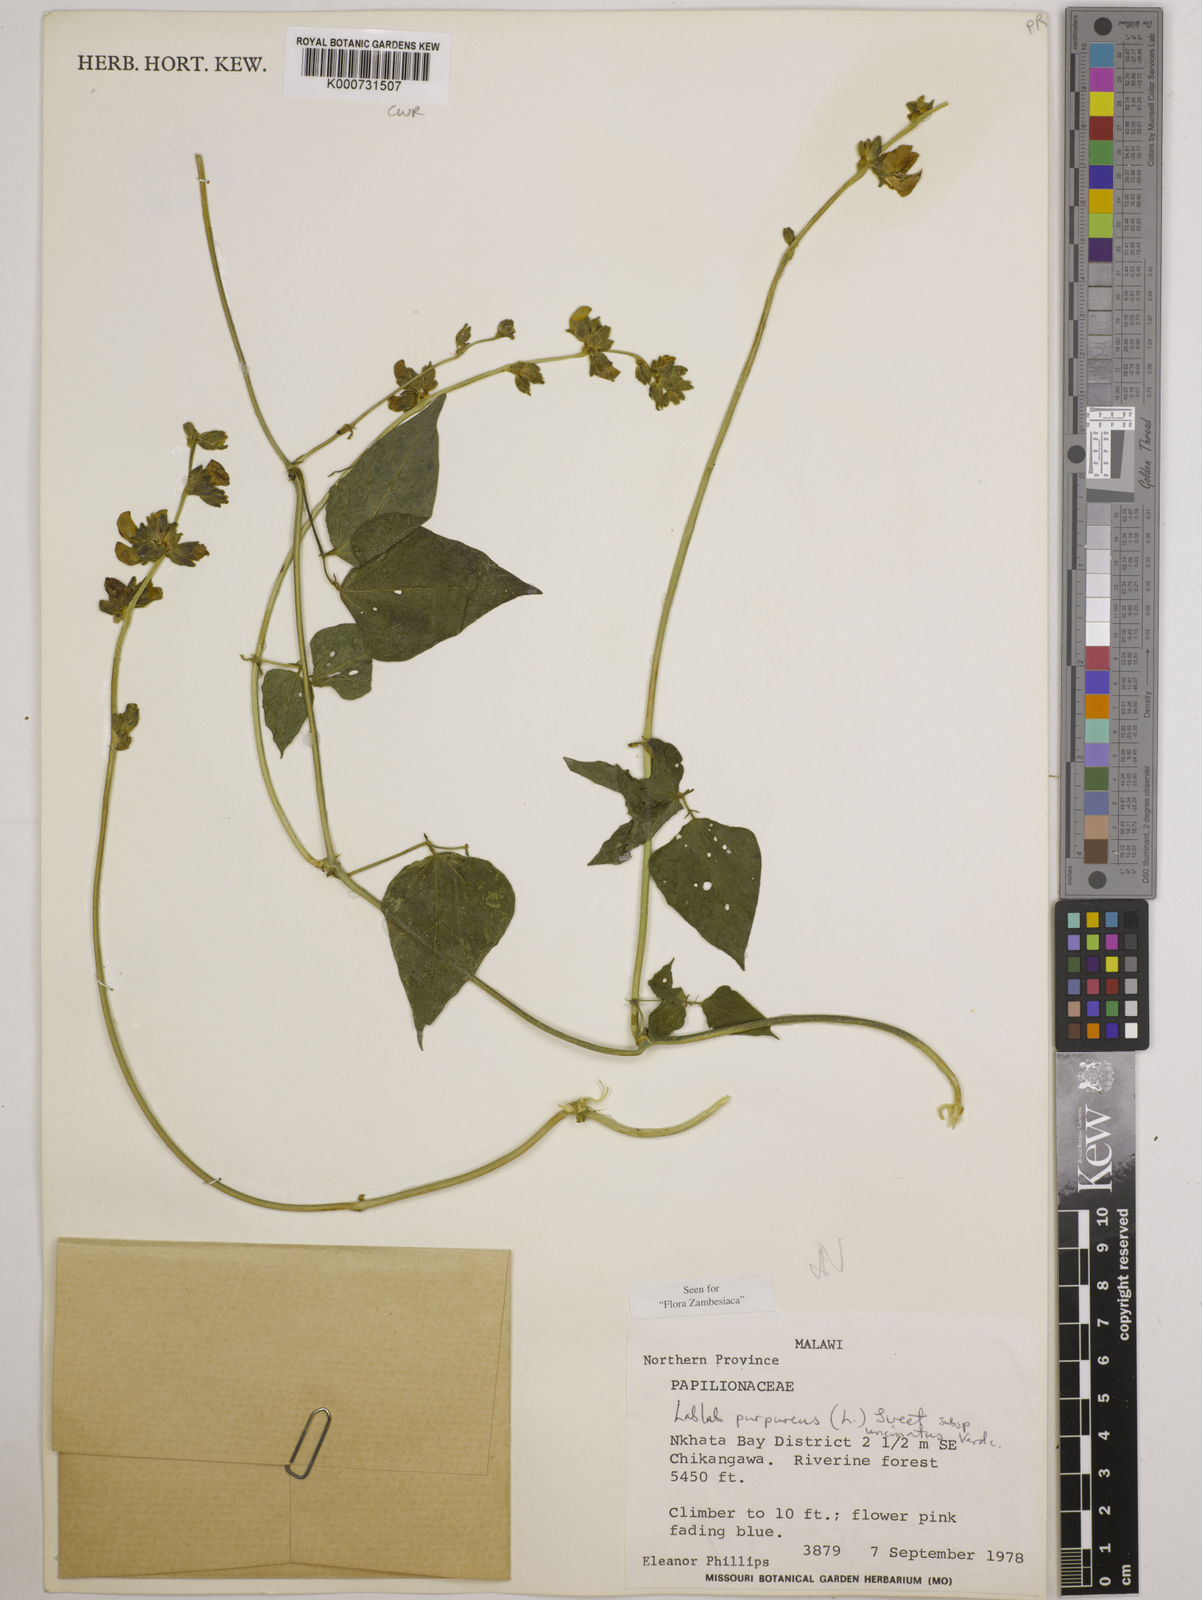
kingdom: Plantae
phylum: Tracheophyta
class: Magnoliopsida
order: Fabales
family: Fabaceae
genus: Lablab
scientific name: Lablab purpureus
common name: Lablab-bean
